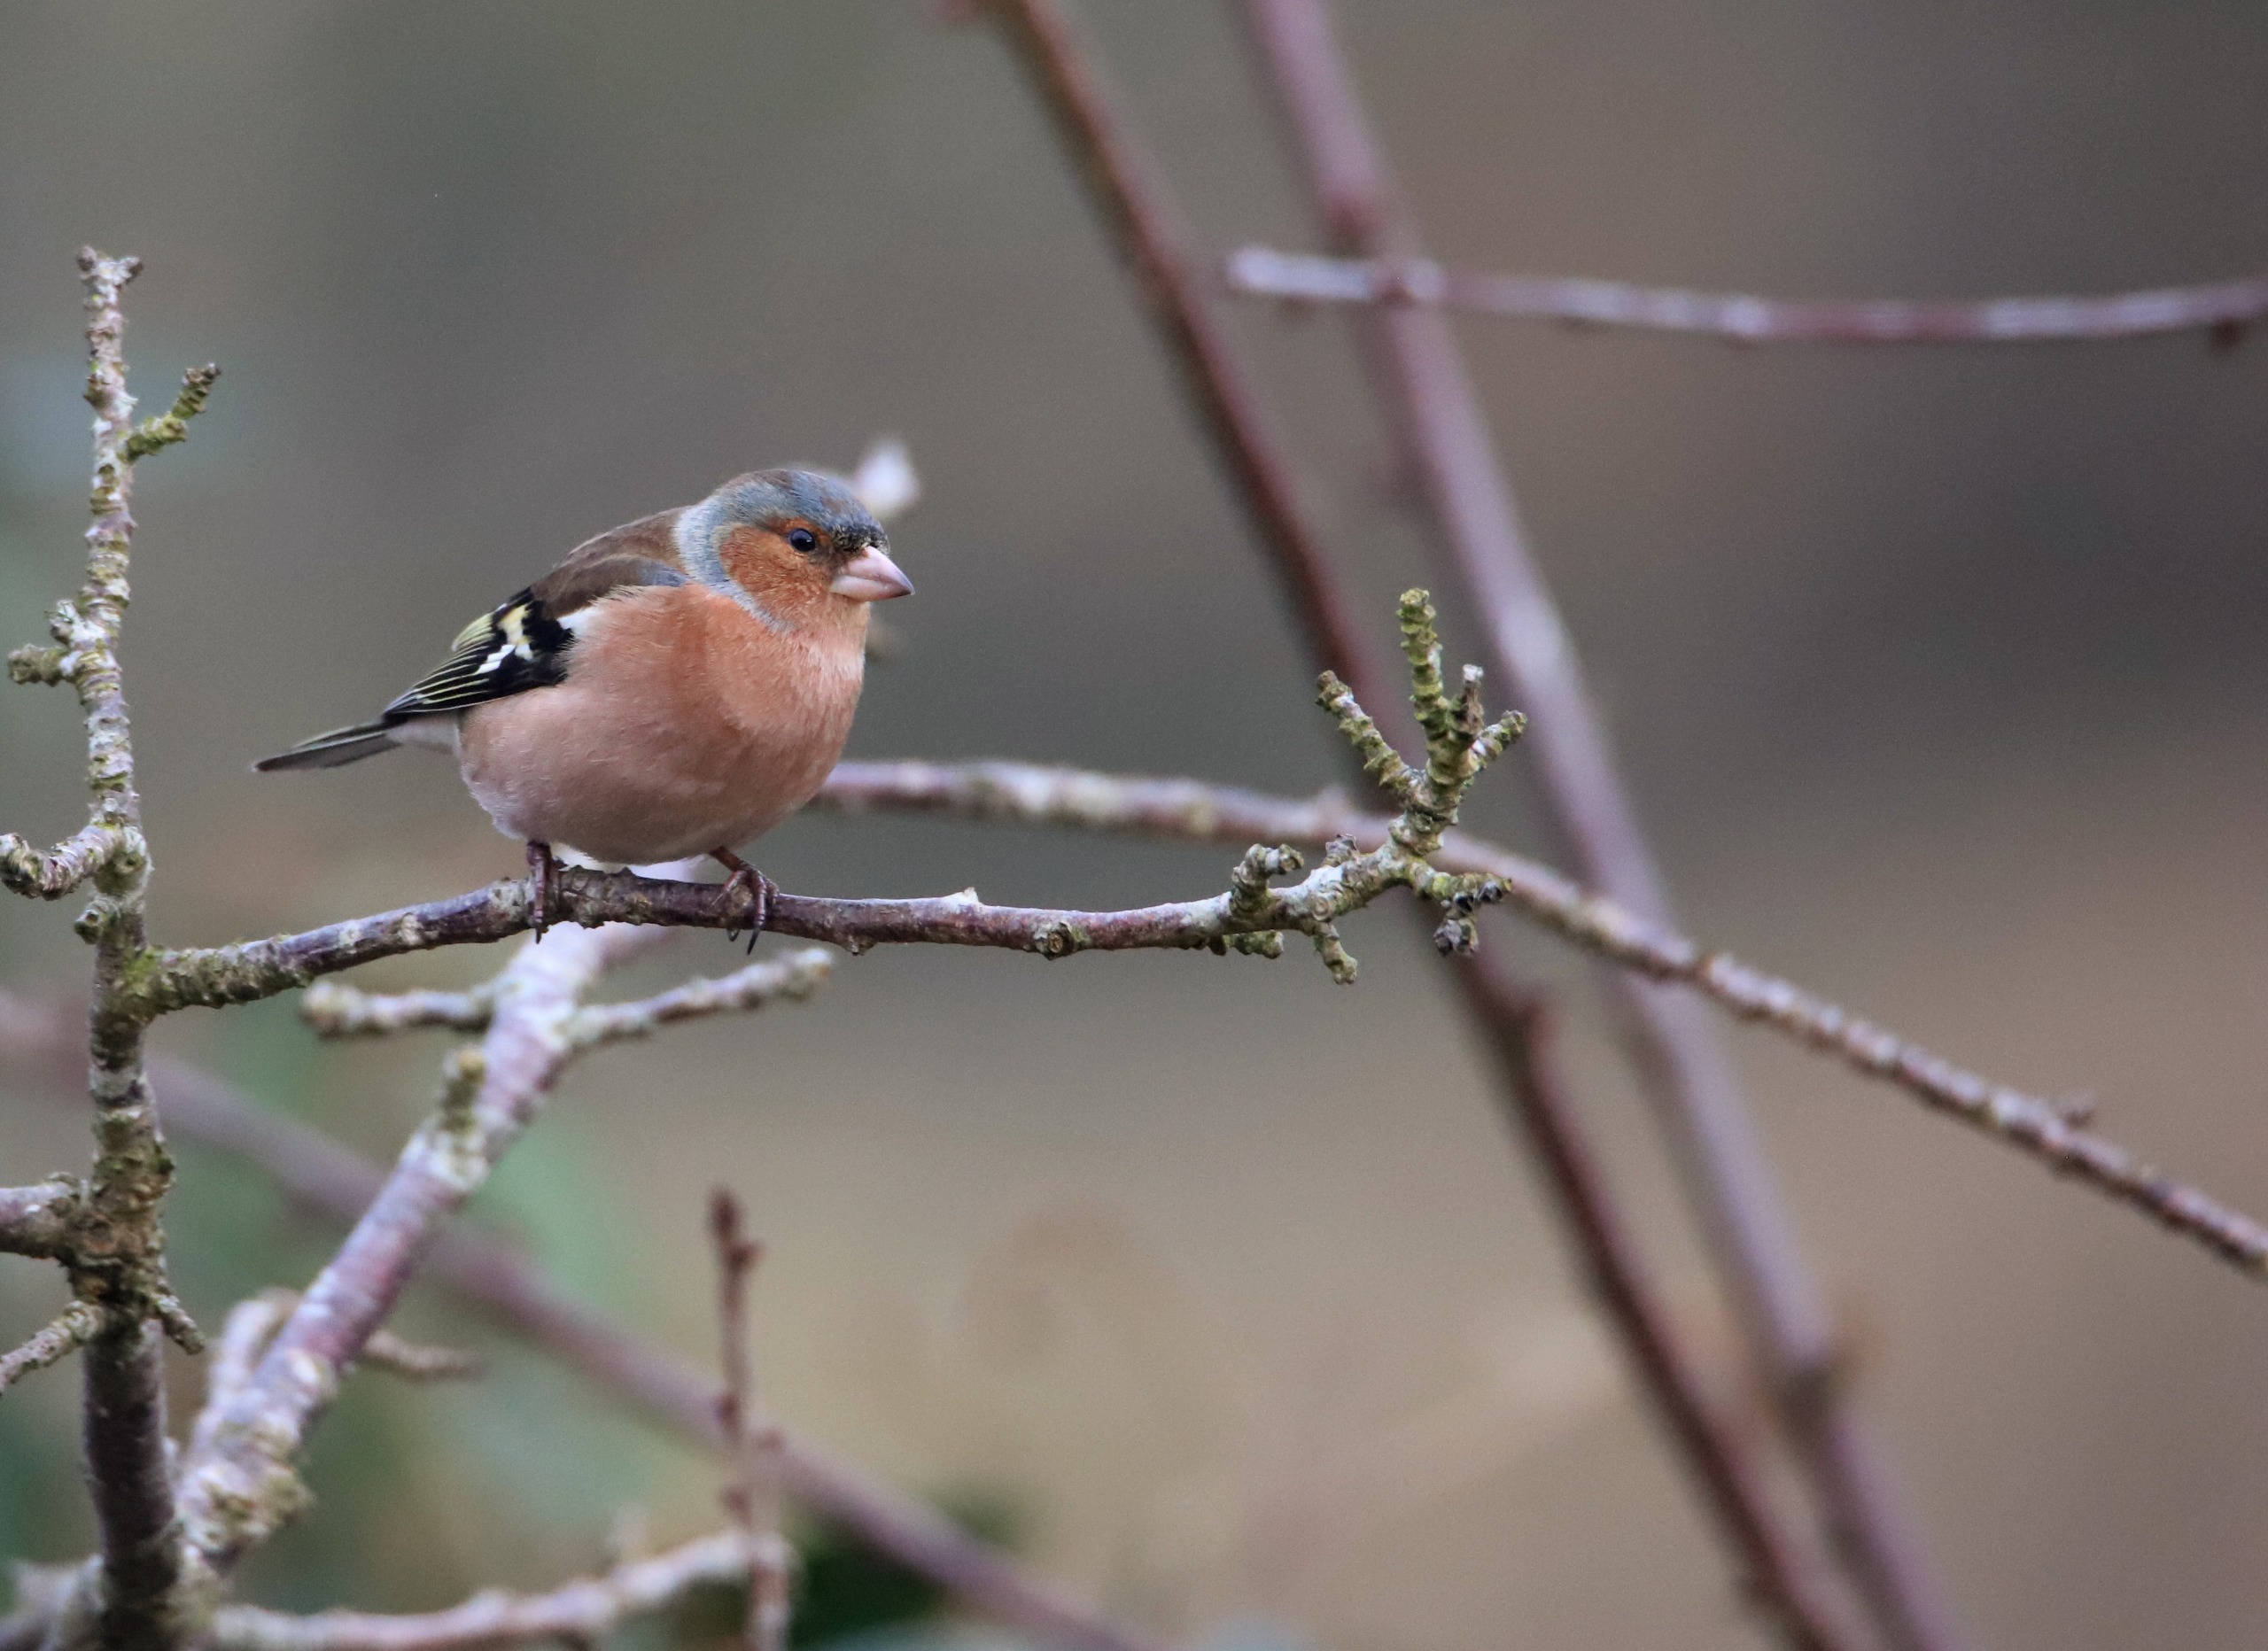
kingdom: Animalia
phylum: Chordata
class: Aves
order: Passeriformes
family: Fringillidae
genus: Fringilla
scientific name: Fringilla coelebs
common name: Bogfinke
